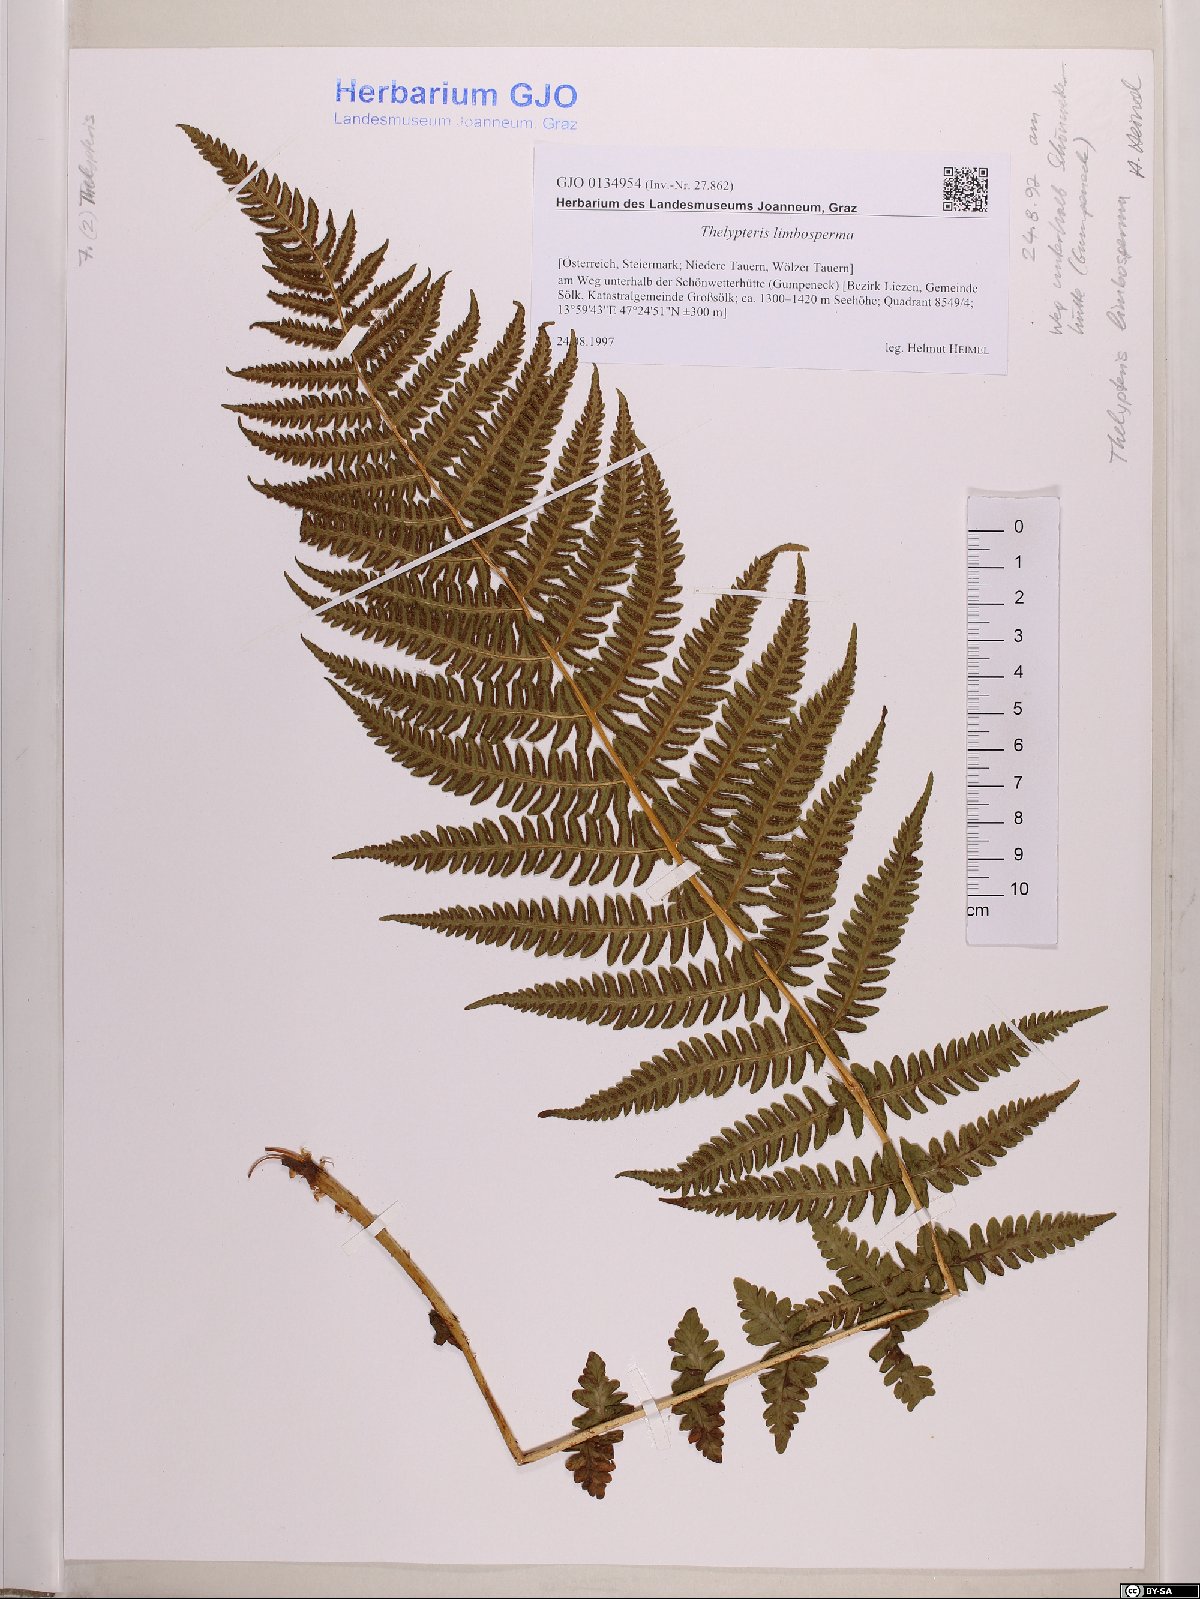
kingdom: Plantae
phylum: Tracheophyta
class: Polypodiopsida
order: Polypodiales
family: Thelypteridaceae
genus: Oreopteris
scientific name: Oreopteris limbosperma
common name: Lemon-scented fern
